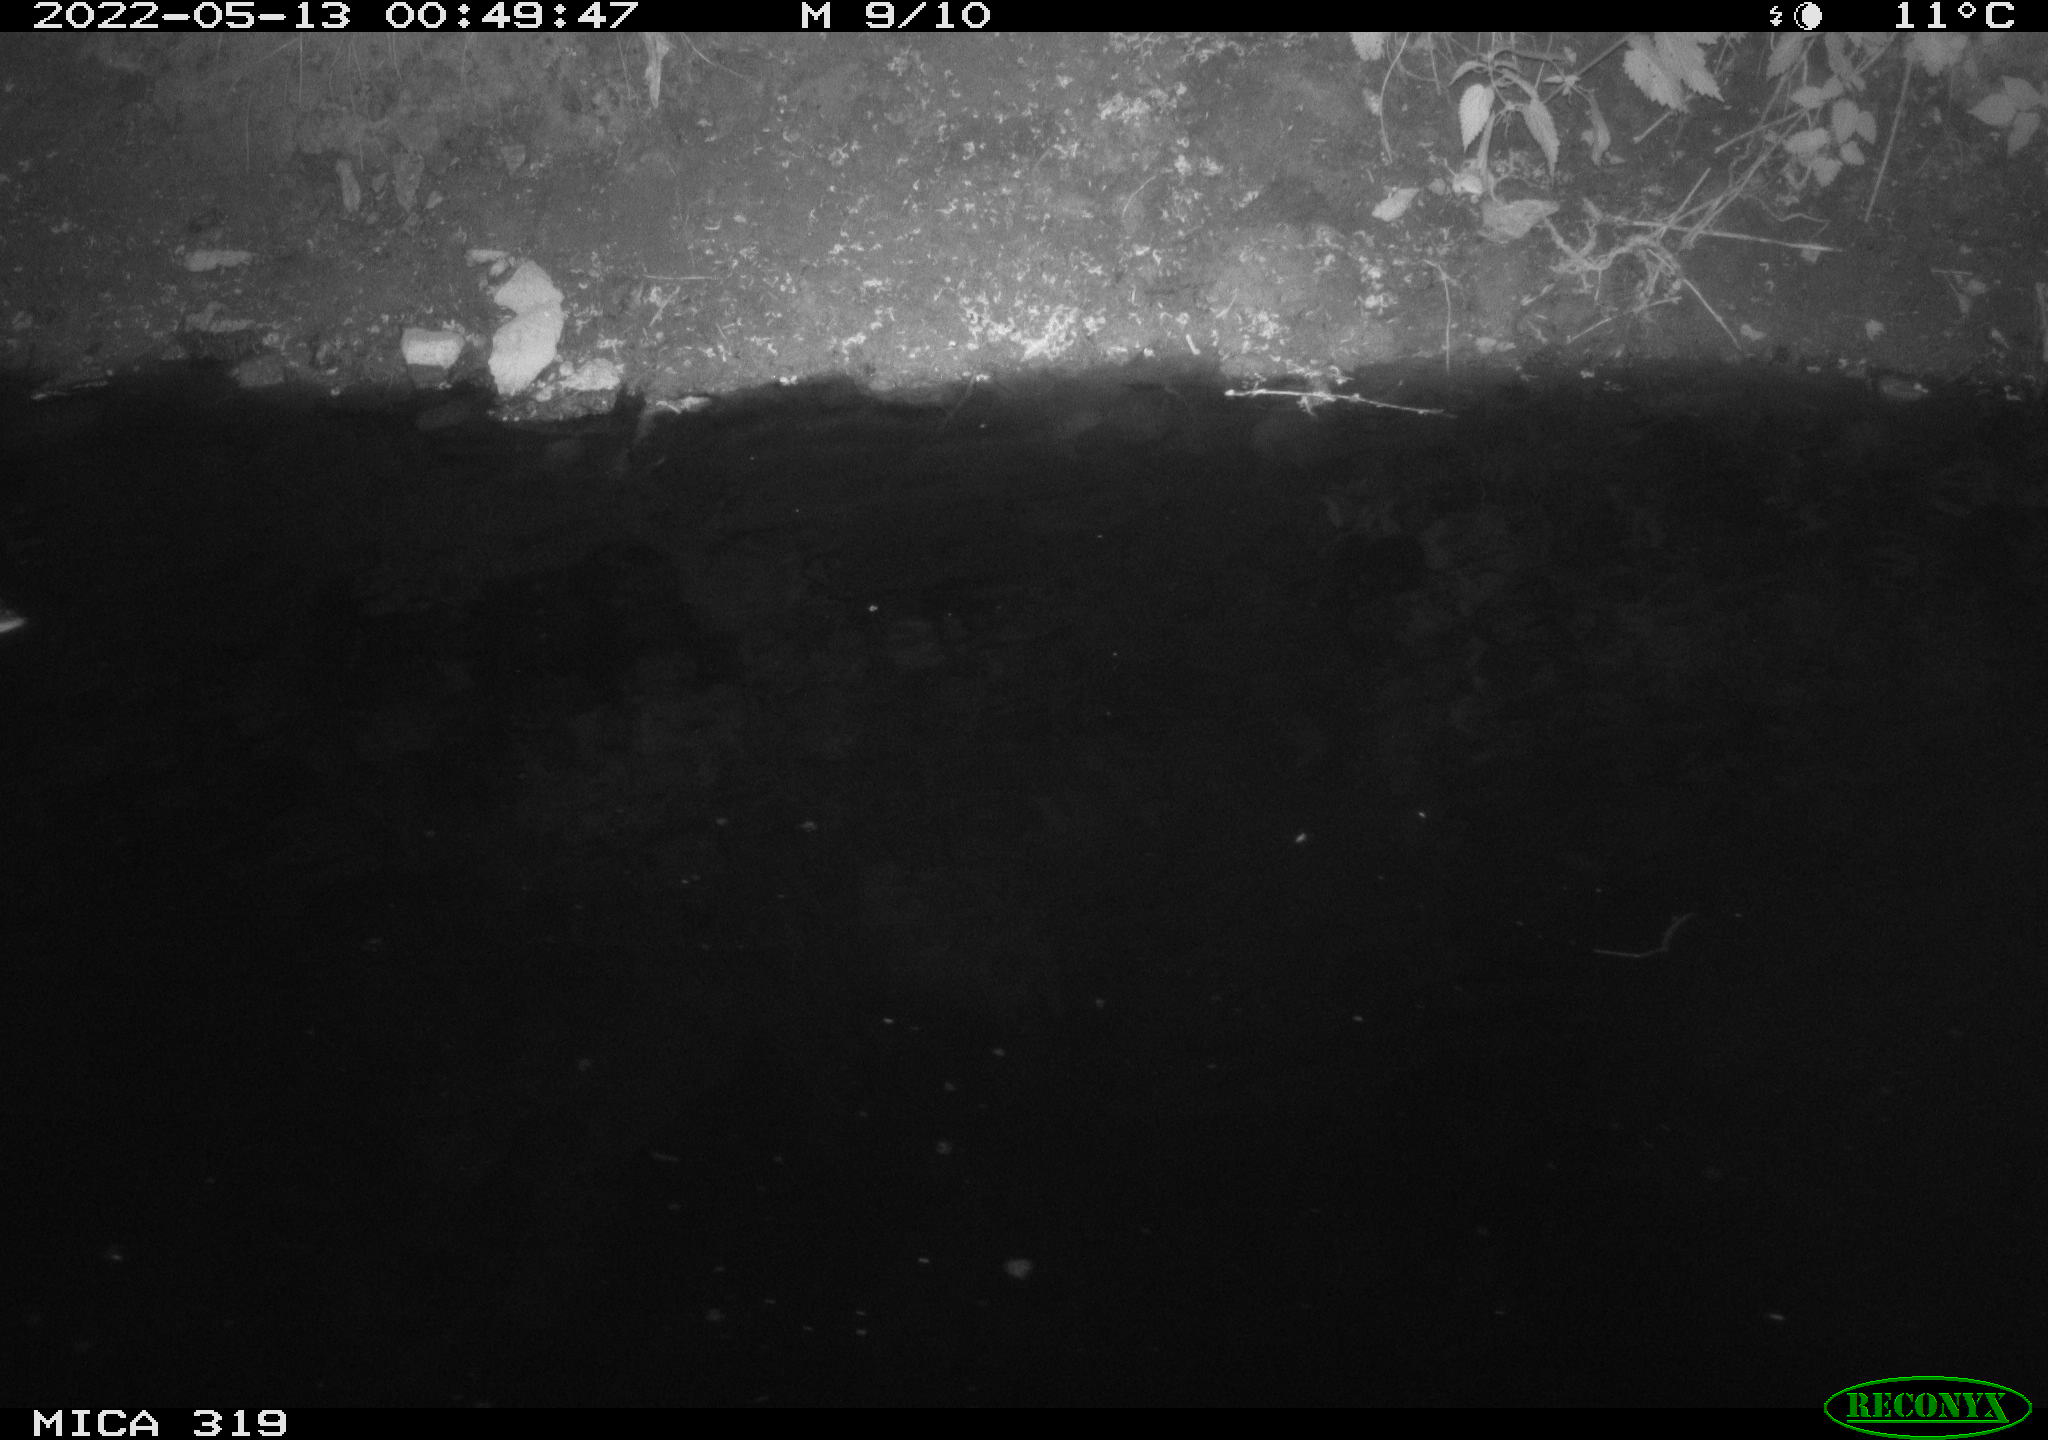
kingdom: Animalia
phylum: Chordata
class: Aves
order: Anseriformes
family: Anatidae
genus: Anas
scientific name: Anas
